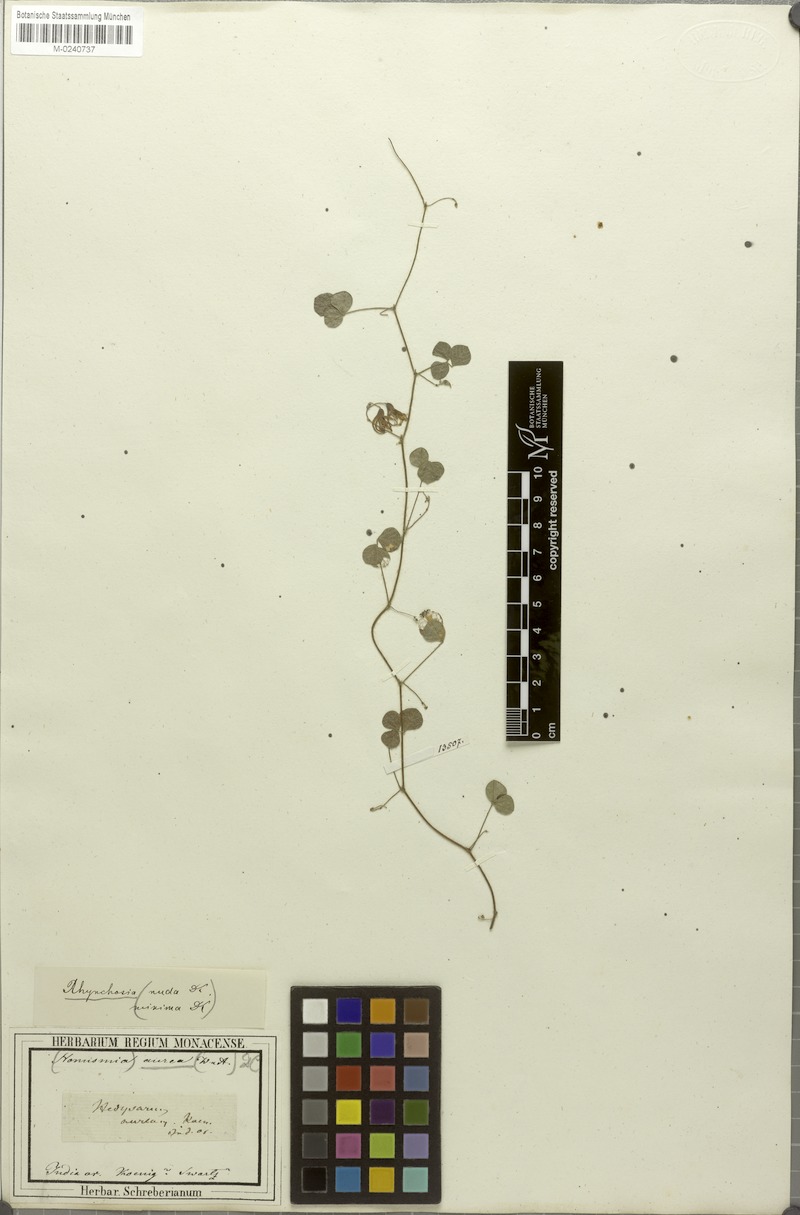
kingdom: Plantae
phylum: Tracheophyta
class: Magnoliopsida
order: Fabales
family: Fabaceae
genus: Rhynchosia
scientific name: Rhynchosia aurea
